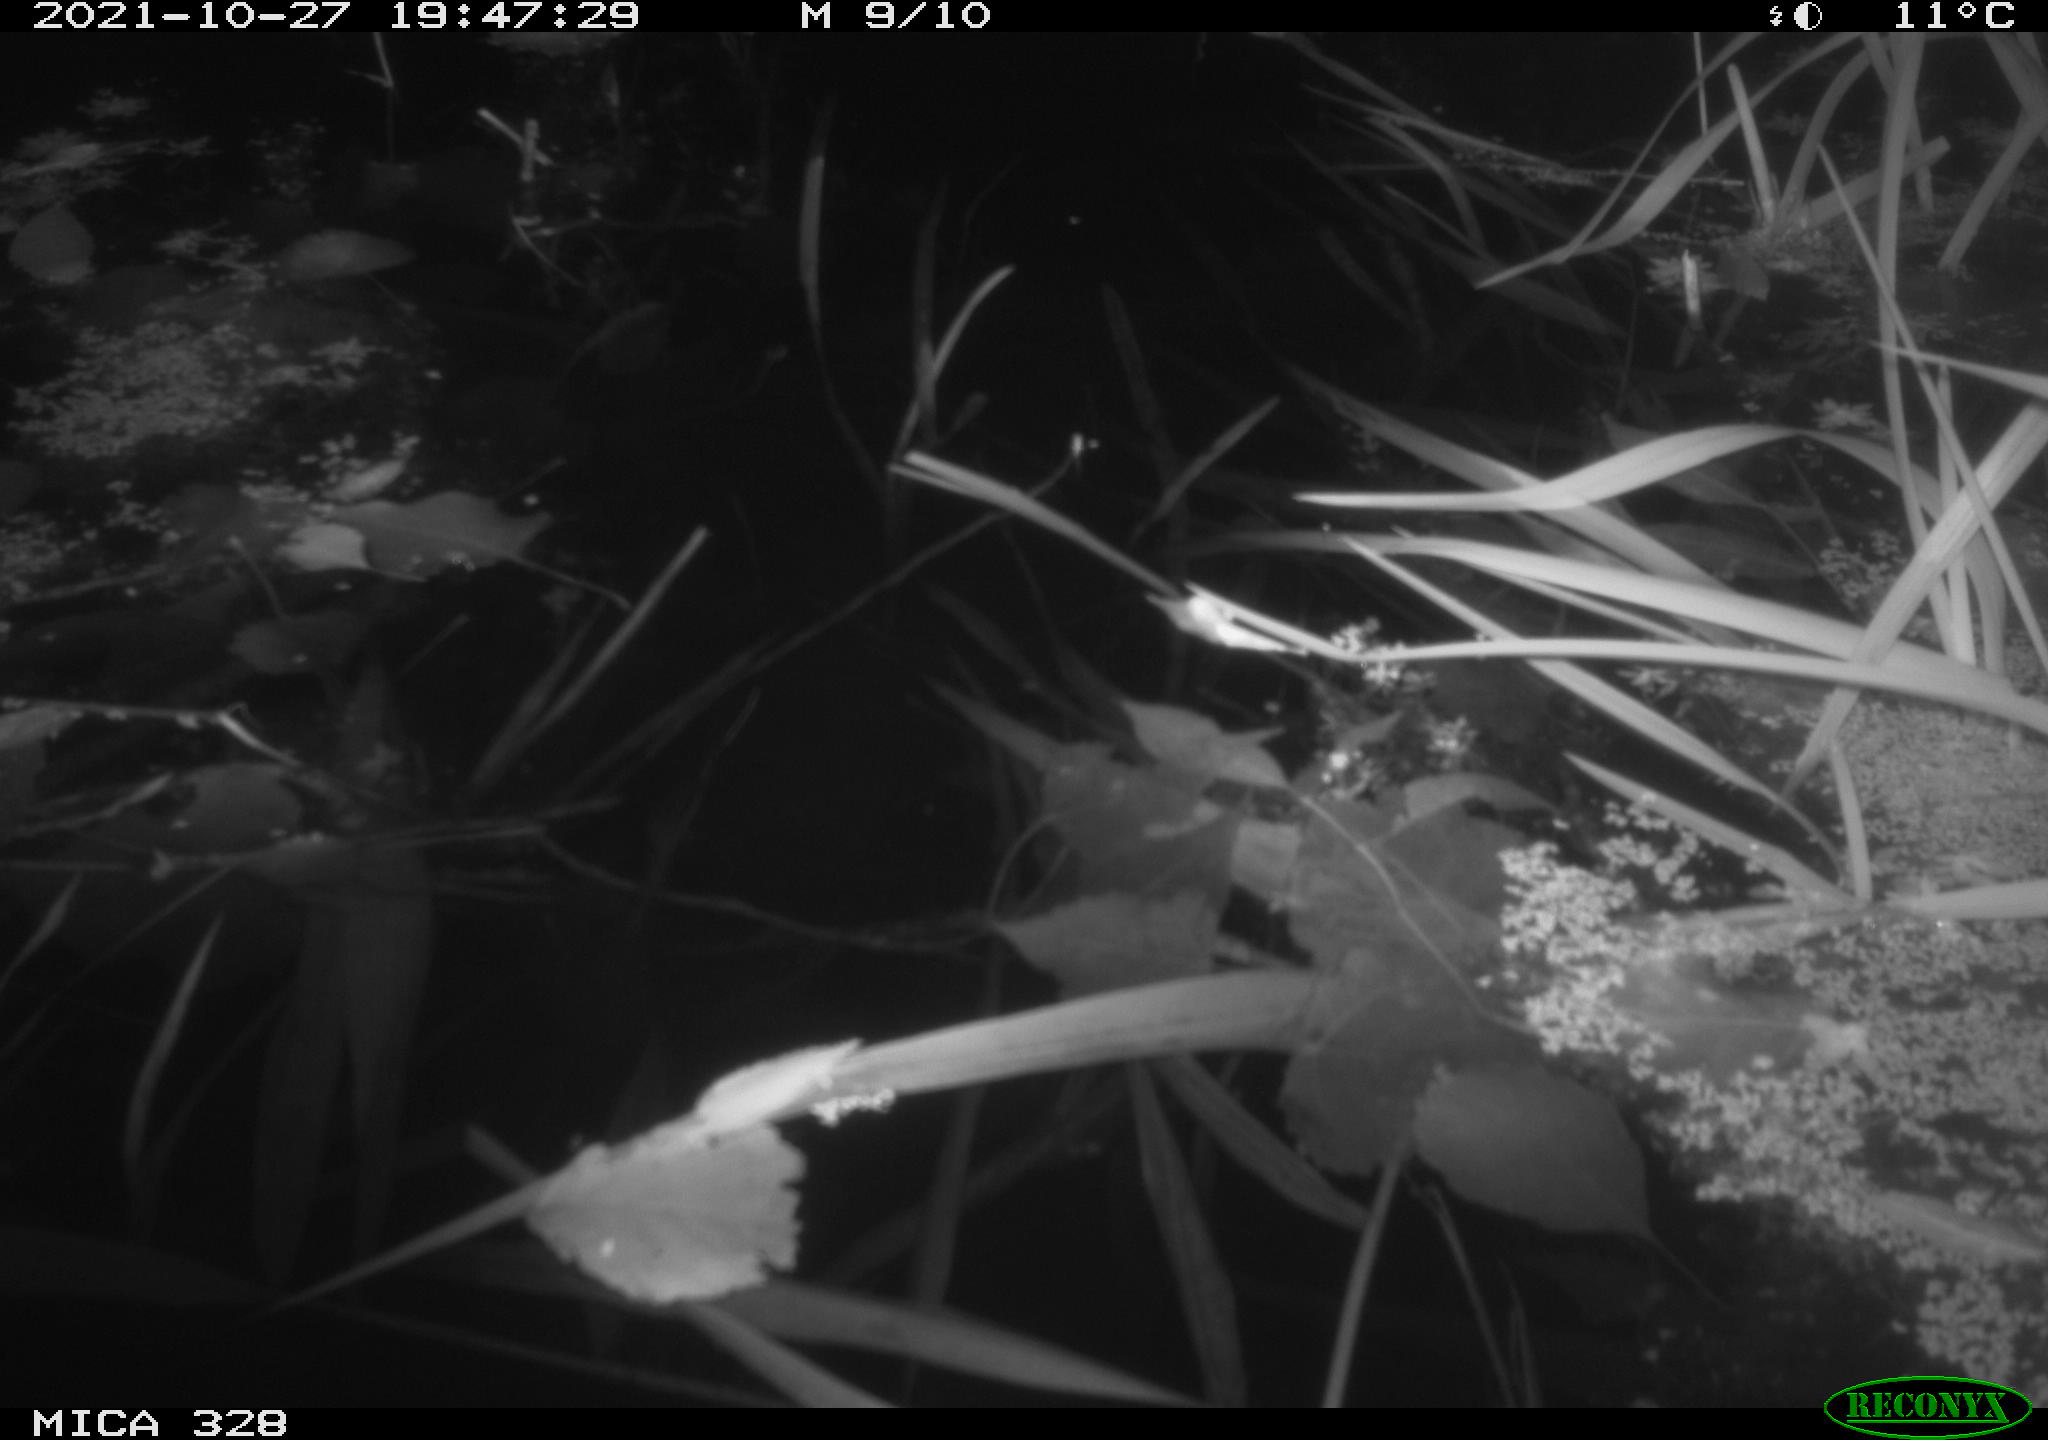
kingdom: Animalia
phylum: Chordata
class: Mammalia
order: Rodentia
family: Cricetidae
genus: Ondatra
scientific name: Ondatra zibethicus
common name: Muskrat
